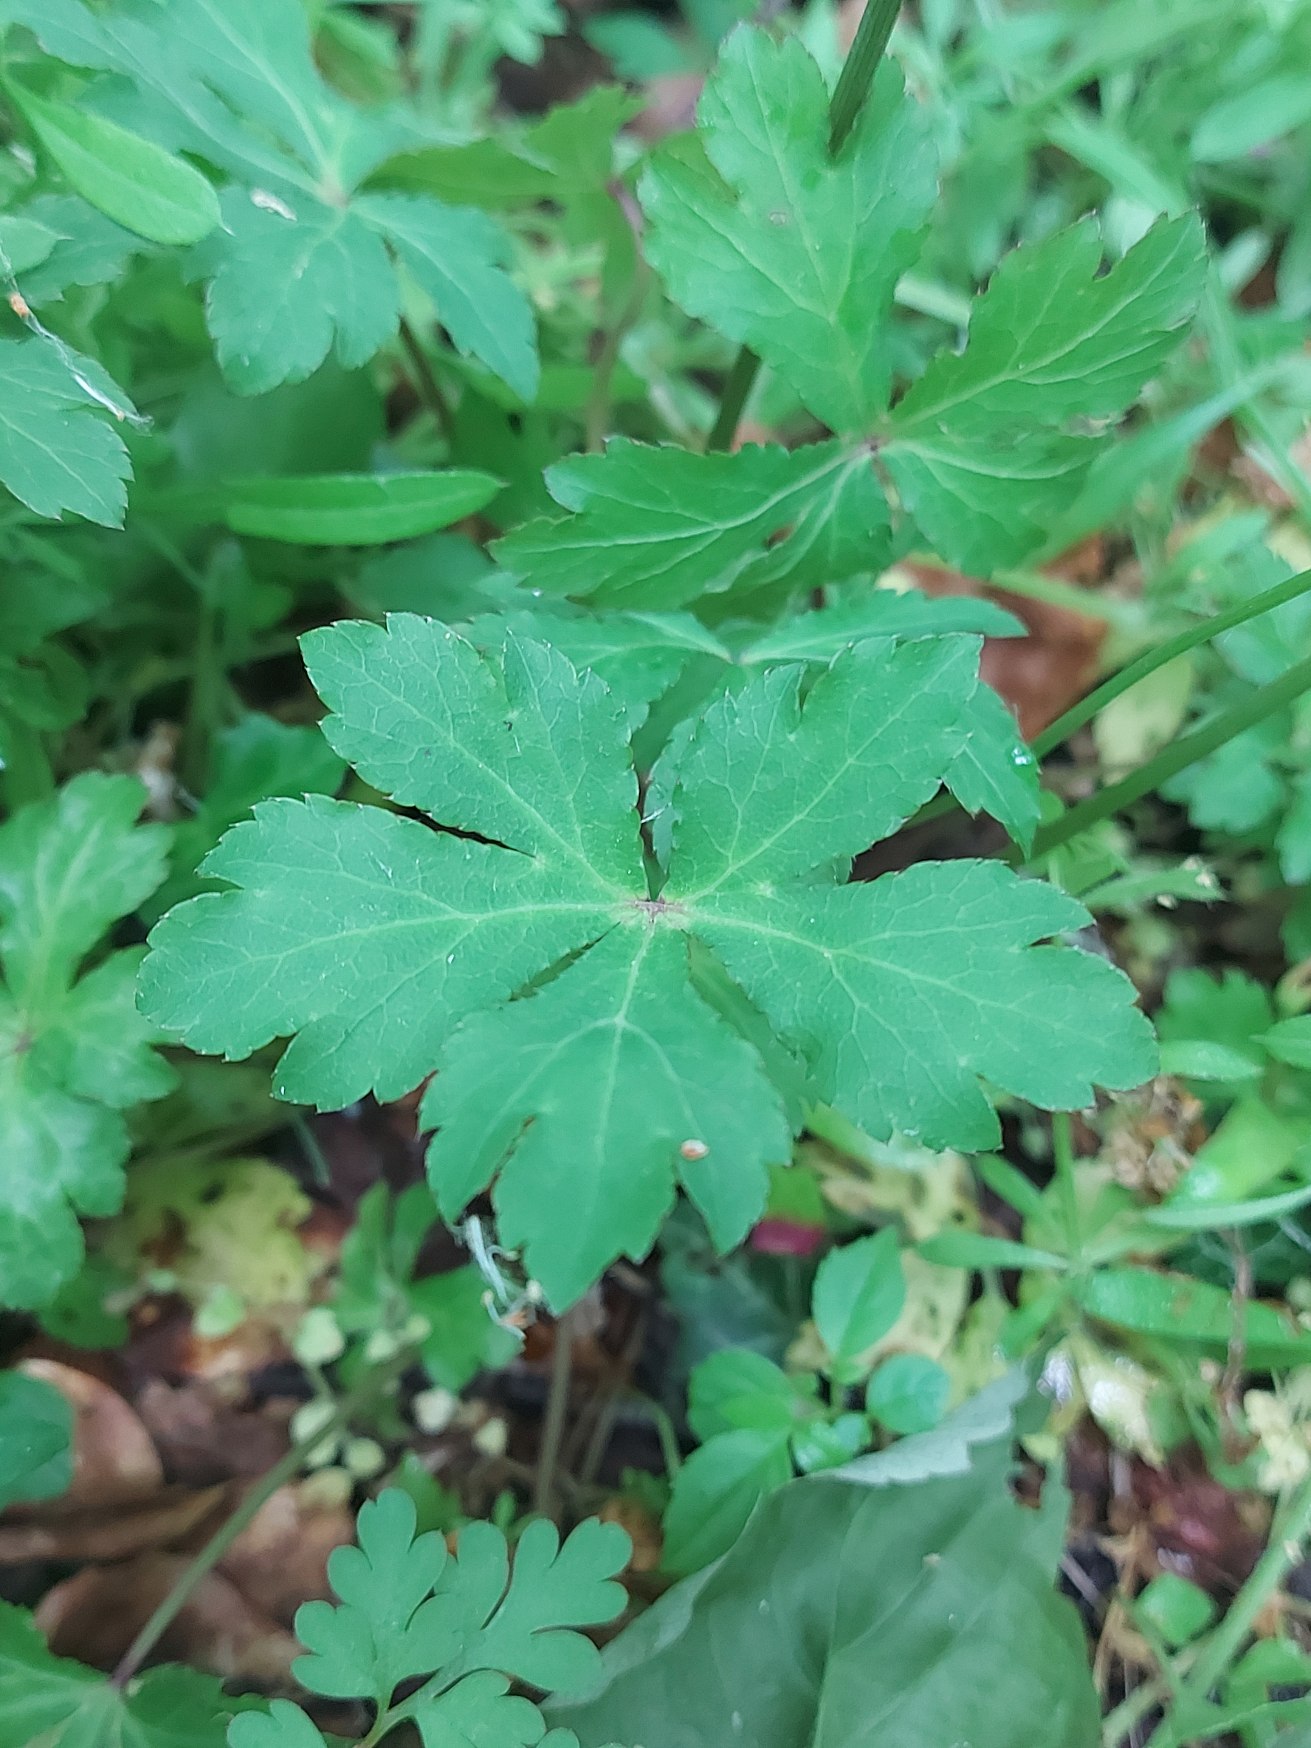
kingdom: Plantae
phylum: Tracheophyta
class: Magnoliopsida
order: Apiales
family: Apiaceae
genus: Sanicula
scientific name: Sanicula europaea
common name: Sanikel
